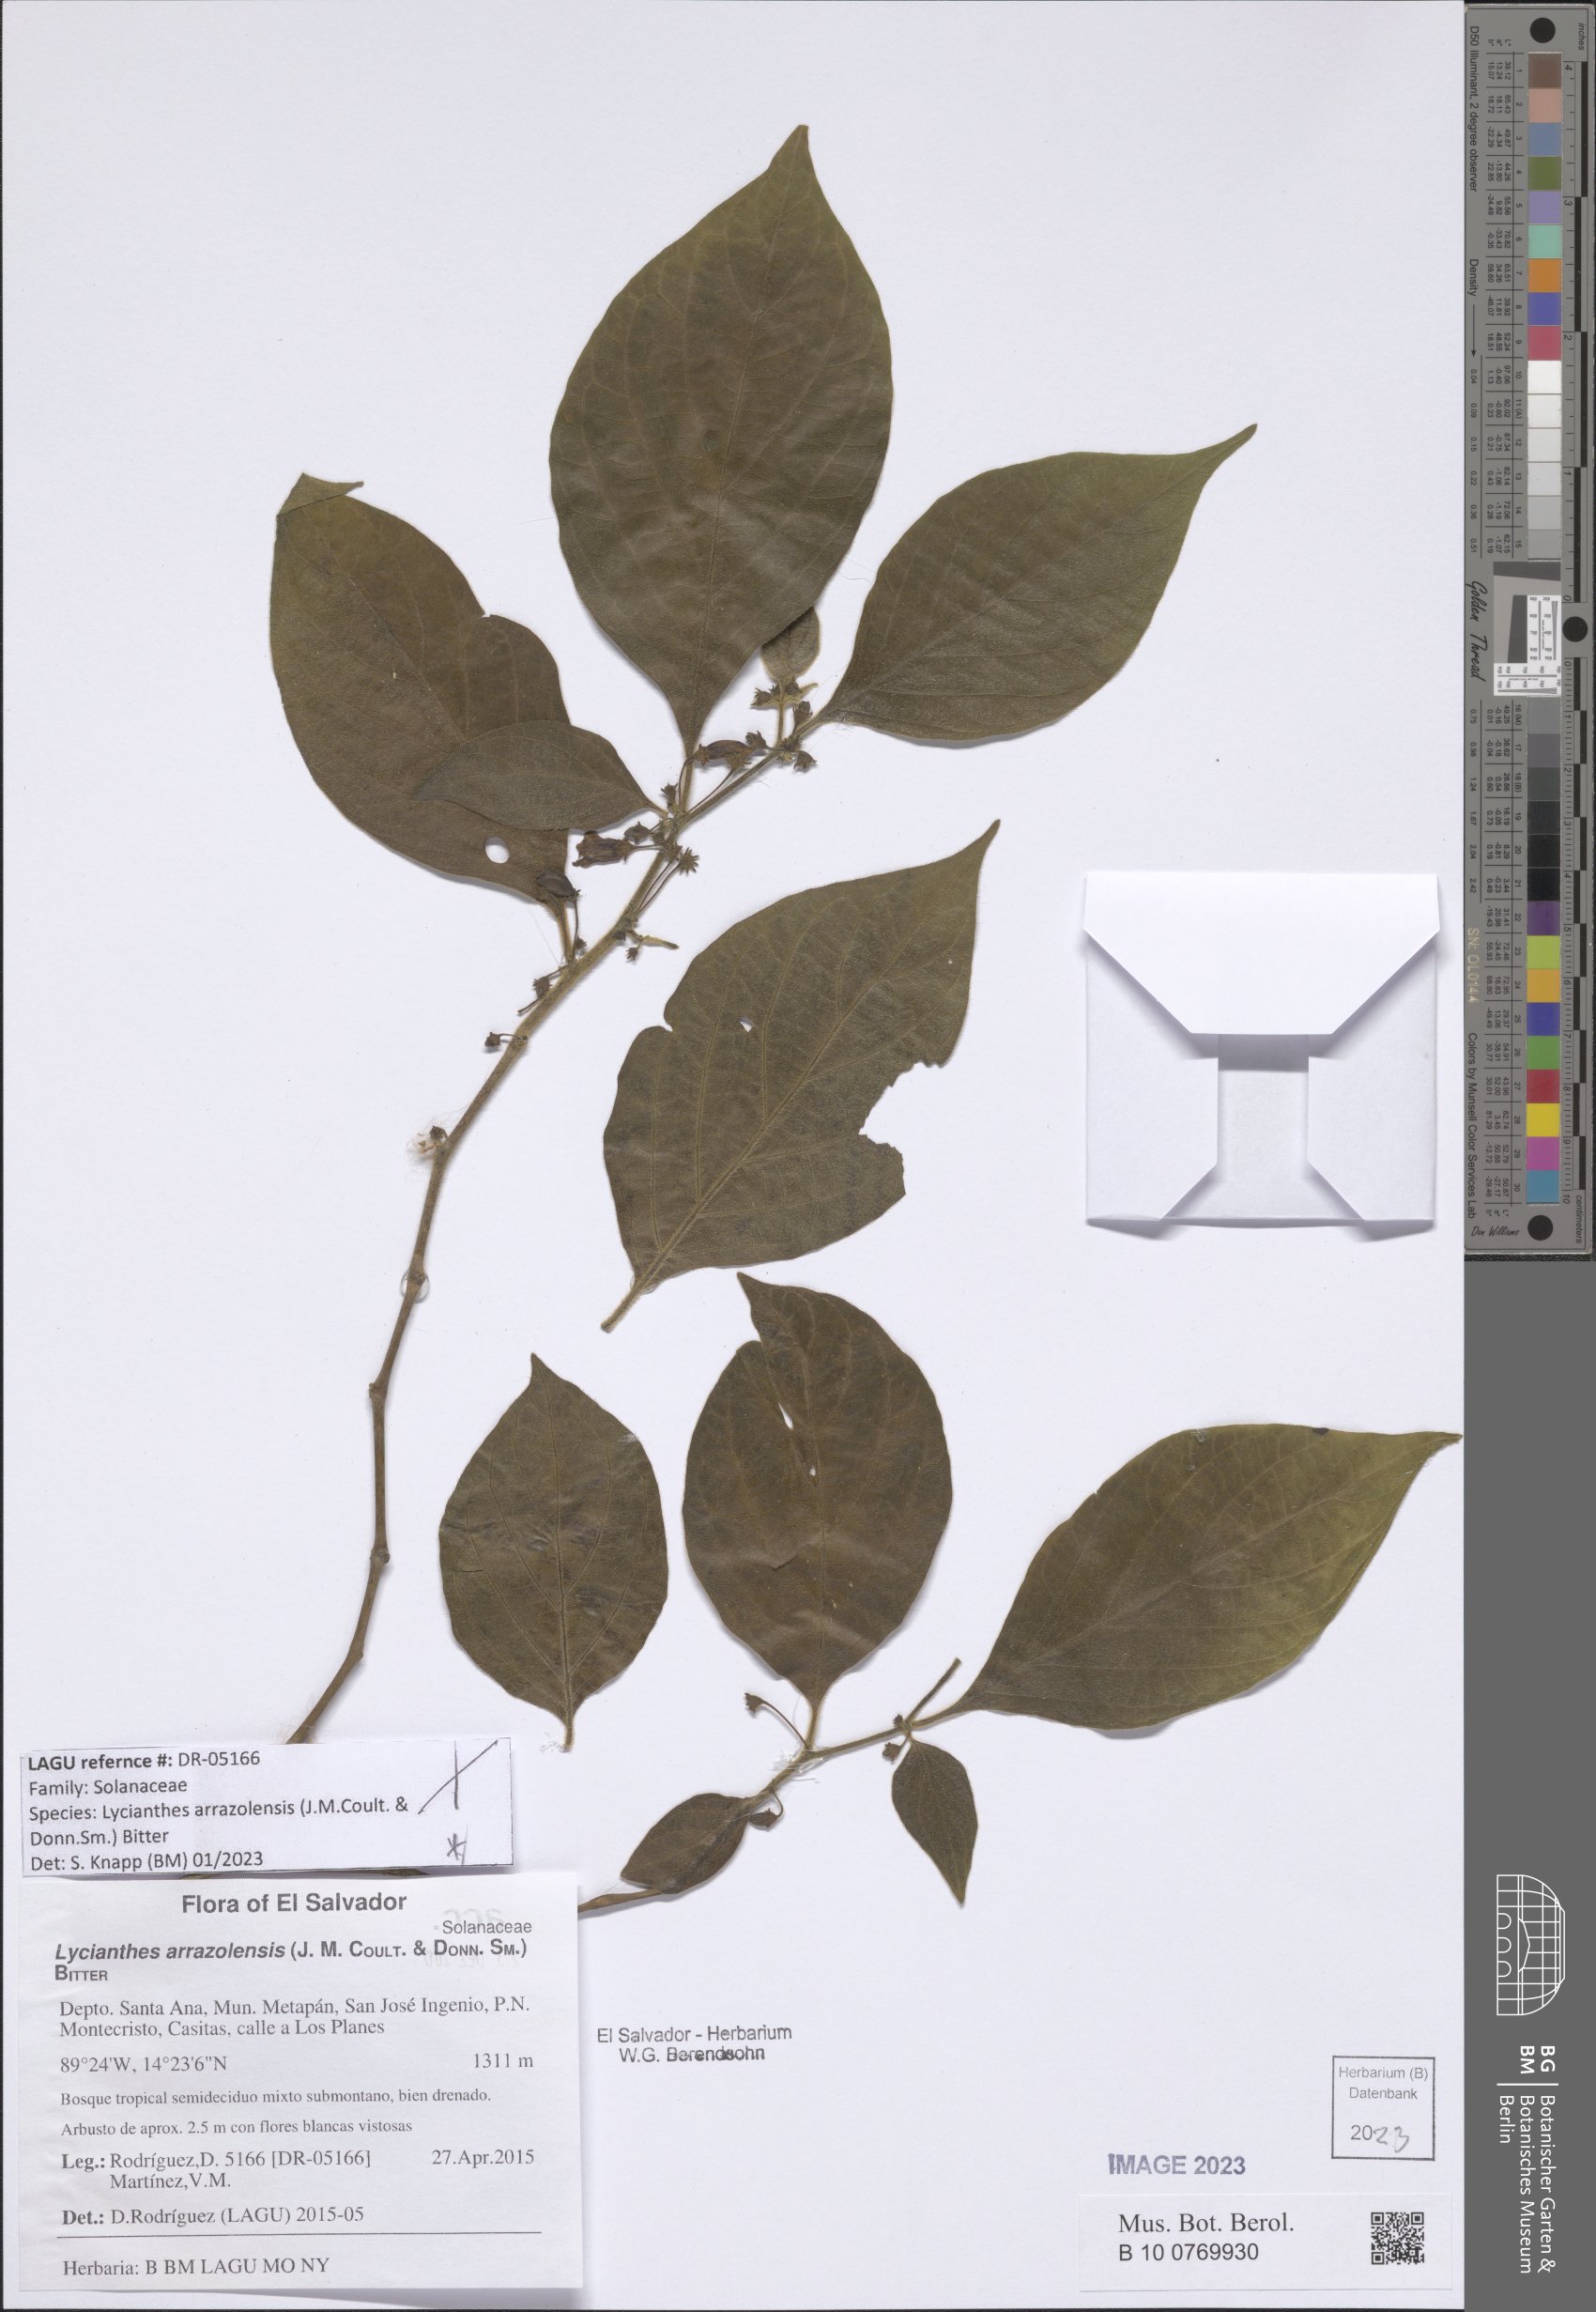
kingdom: Plantae
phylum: Tracheophyta
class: Magnoliopsida
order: Solanales
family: Solanaceae
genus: Lycianthes
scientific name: Lycianthes arrazolensis
